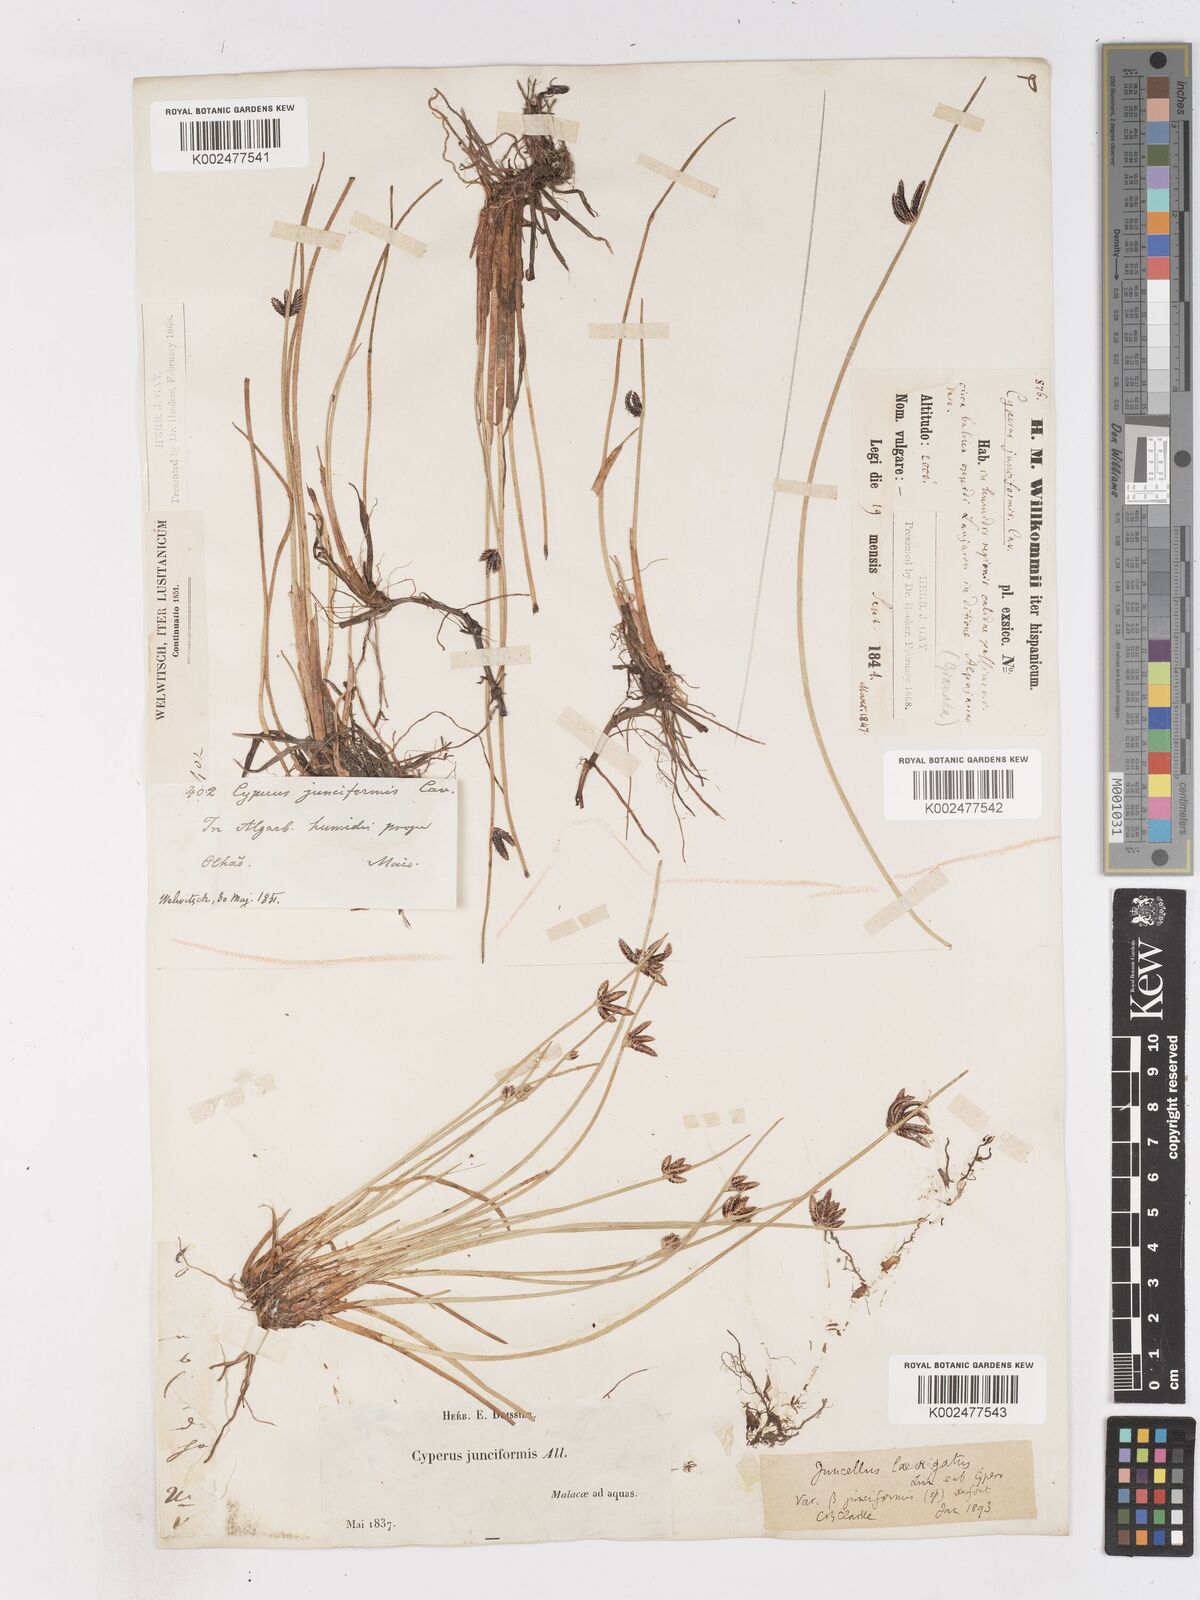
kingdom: Plantae
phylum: Tracheophyta
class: Liliopsida
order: Poales
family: Cyperaceae
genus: Cyperus
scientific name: Cyperus laevigatus
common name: Smooth flat sedge
